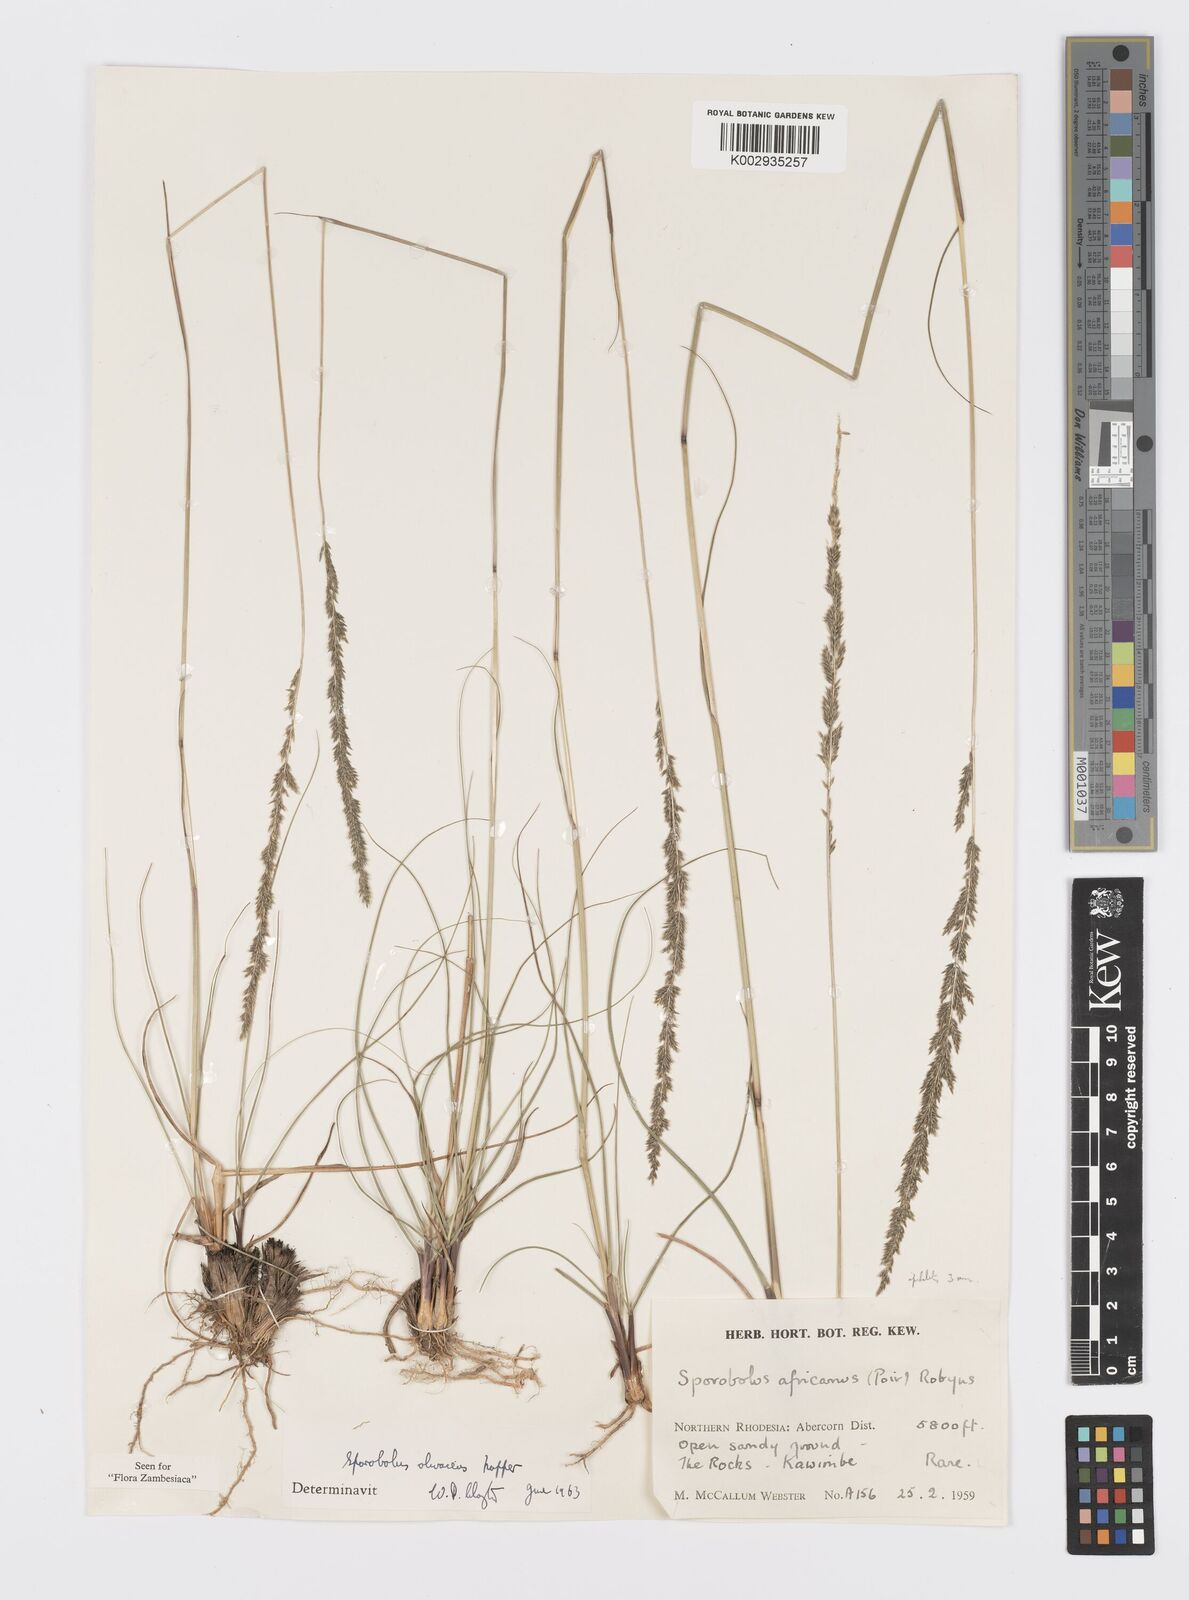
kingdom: Plantae
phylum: Tracheophyta
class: Liliopsida
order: Poales
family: Poaceae
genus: Sporobolus
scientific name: Sporobolus olivaceus
